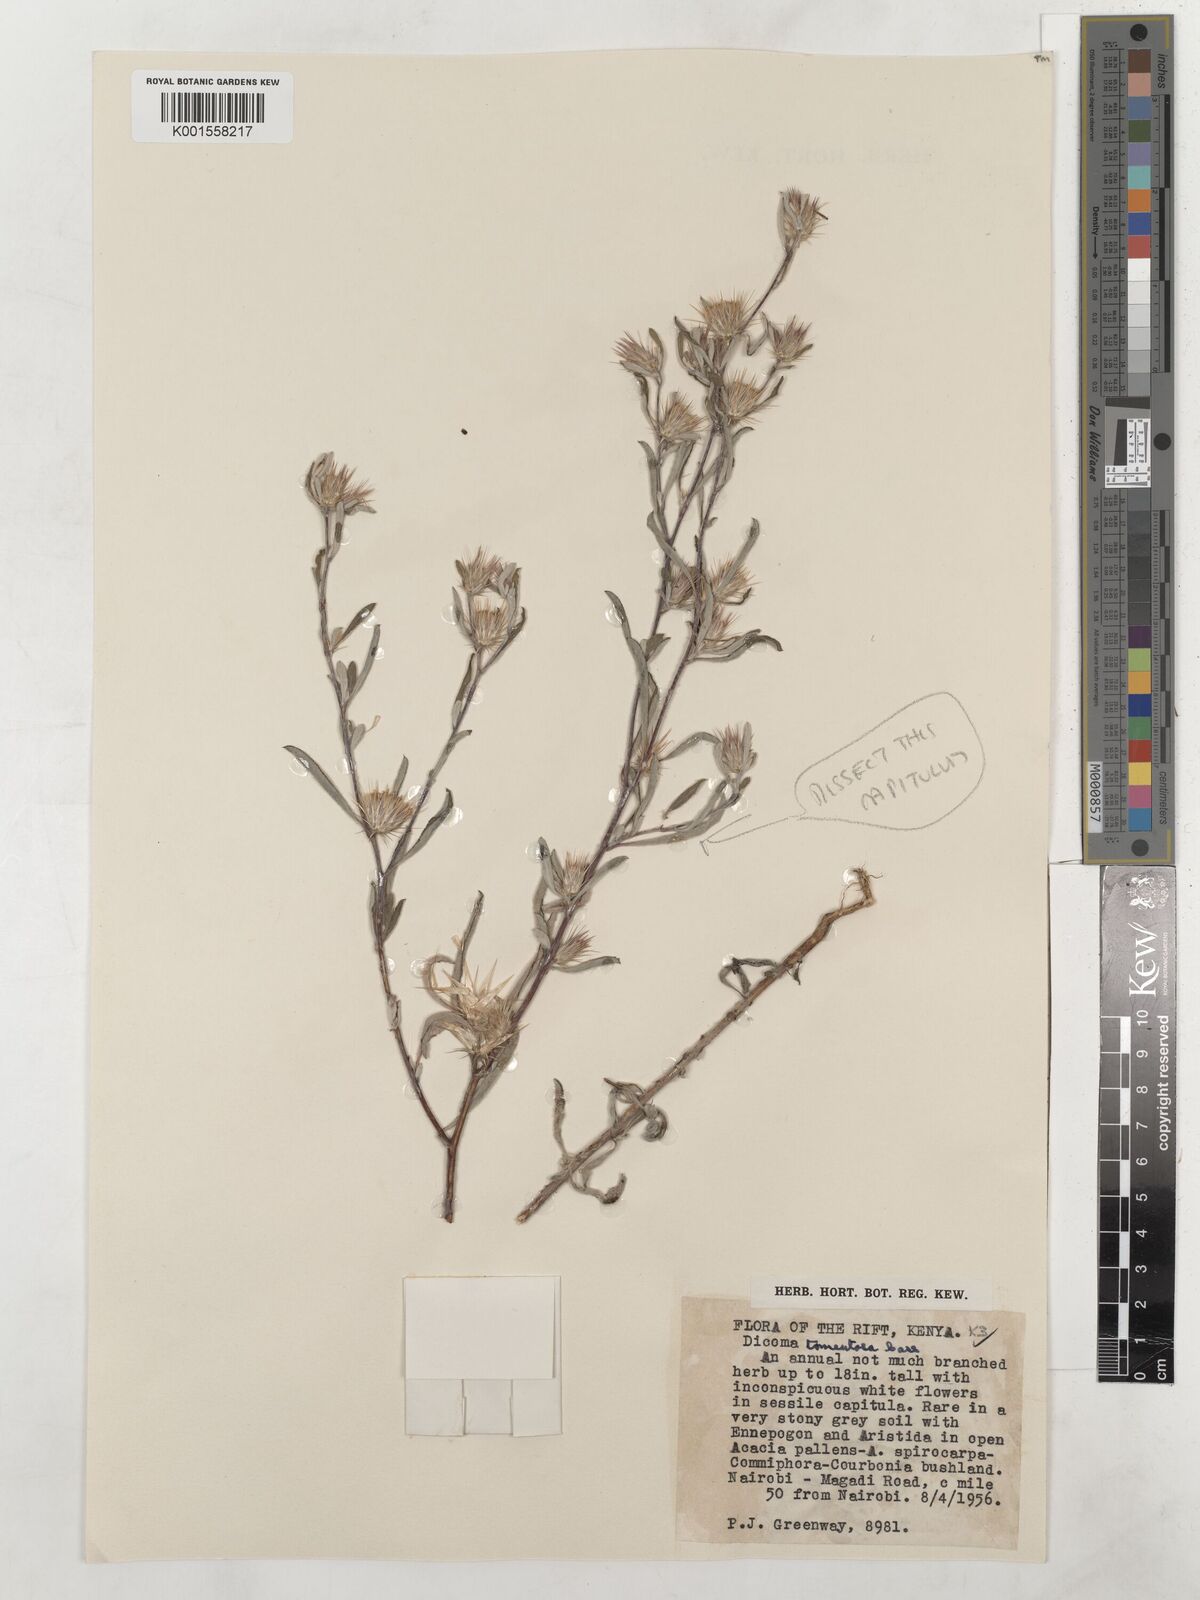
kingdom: Plantae
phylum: Tracheophyta
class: Magnoliopsida
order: Asterales
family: Asteraceae
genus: Dicoma
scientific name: Dicoma tomentosa
